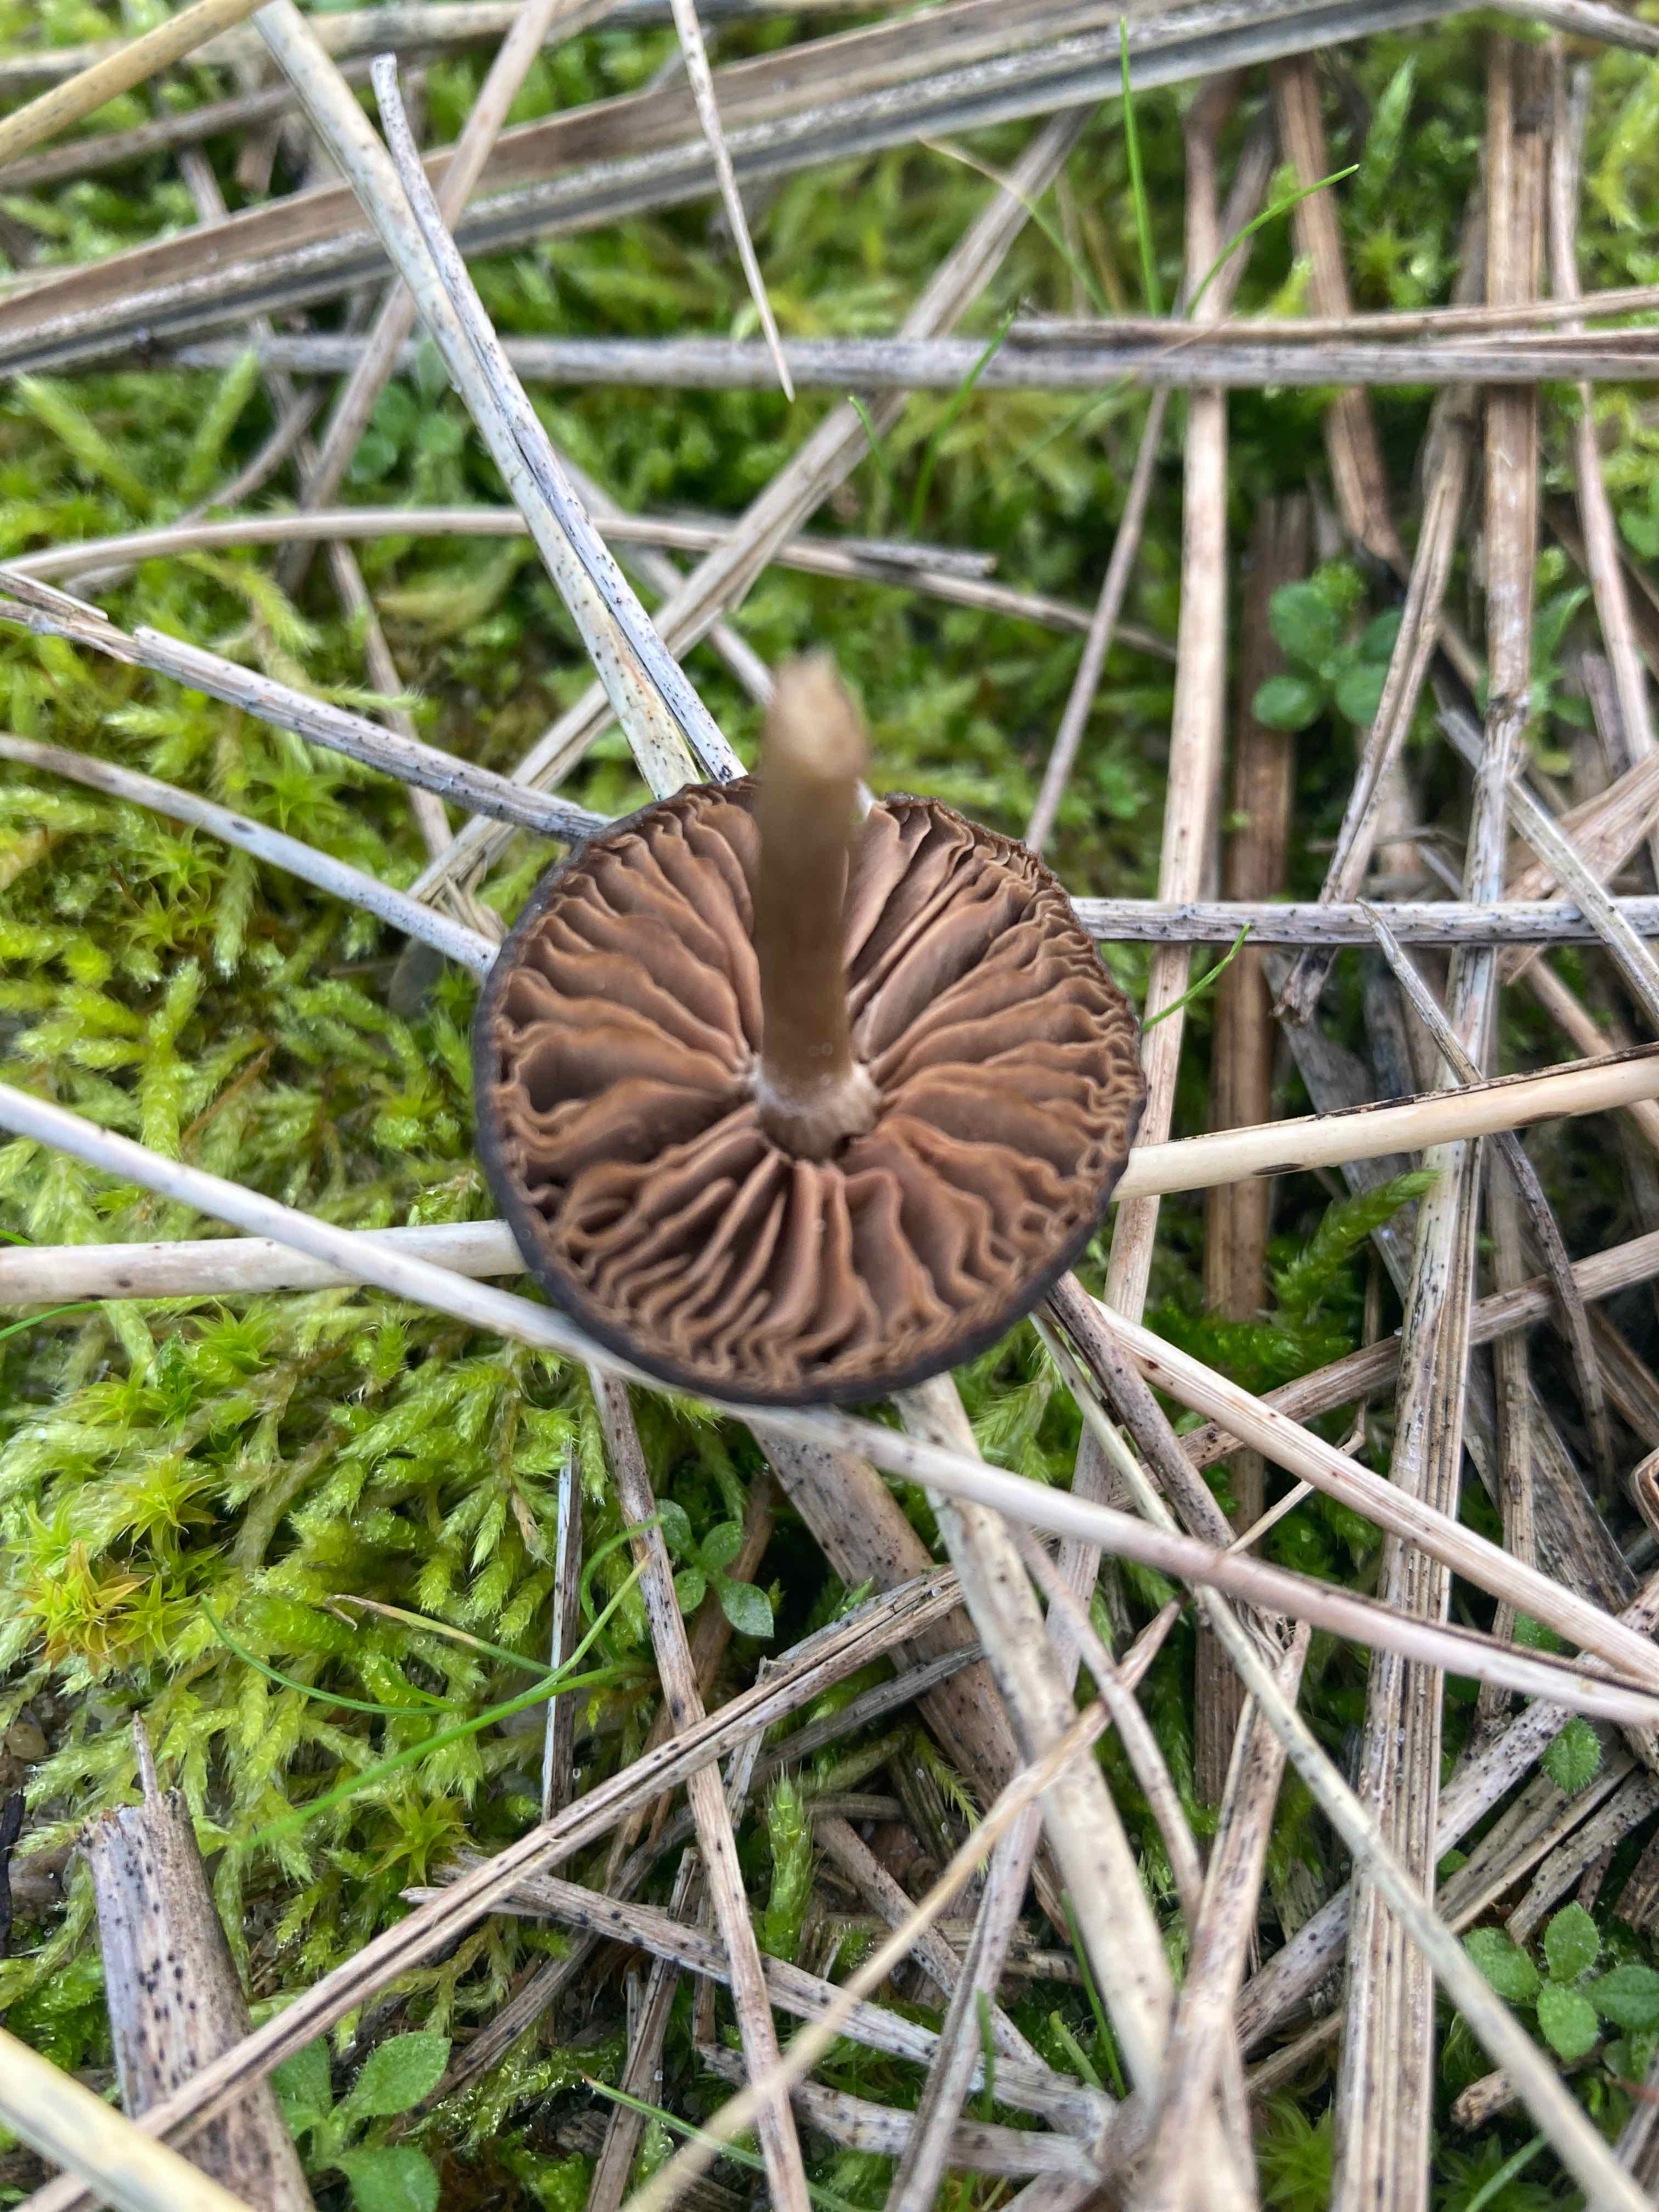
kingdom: Fungi
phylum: Basidiomycota
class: Agaricomycetes
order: Agaricales
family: Entolomataceae
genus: Entoloma
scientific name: Entoloma
